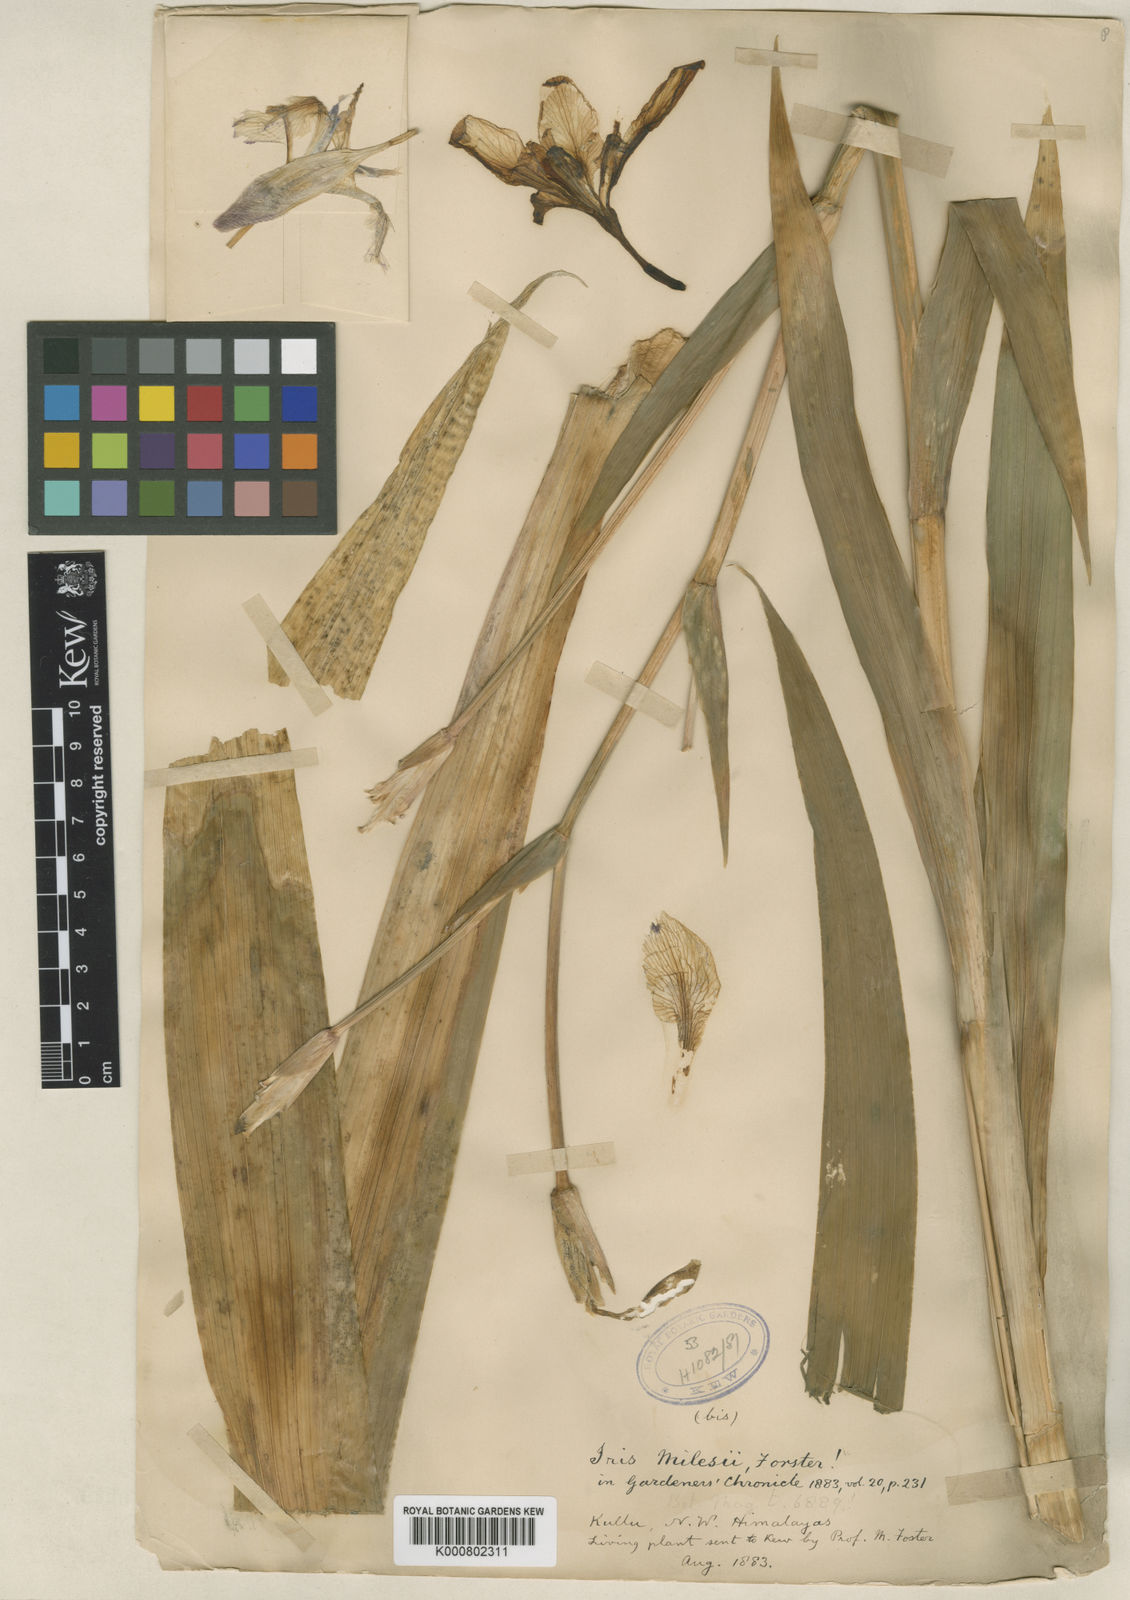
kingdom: Plantae
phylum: Tracheophyta
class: Liliopsida
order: Asparagales
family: Iridaceae
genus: Iris
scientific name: Iris milesii
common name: Red-flower iris
